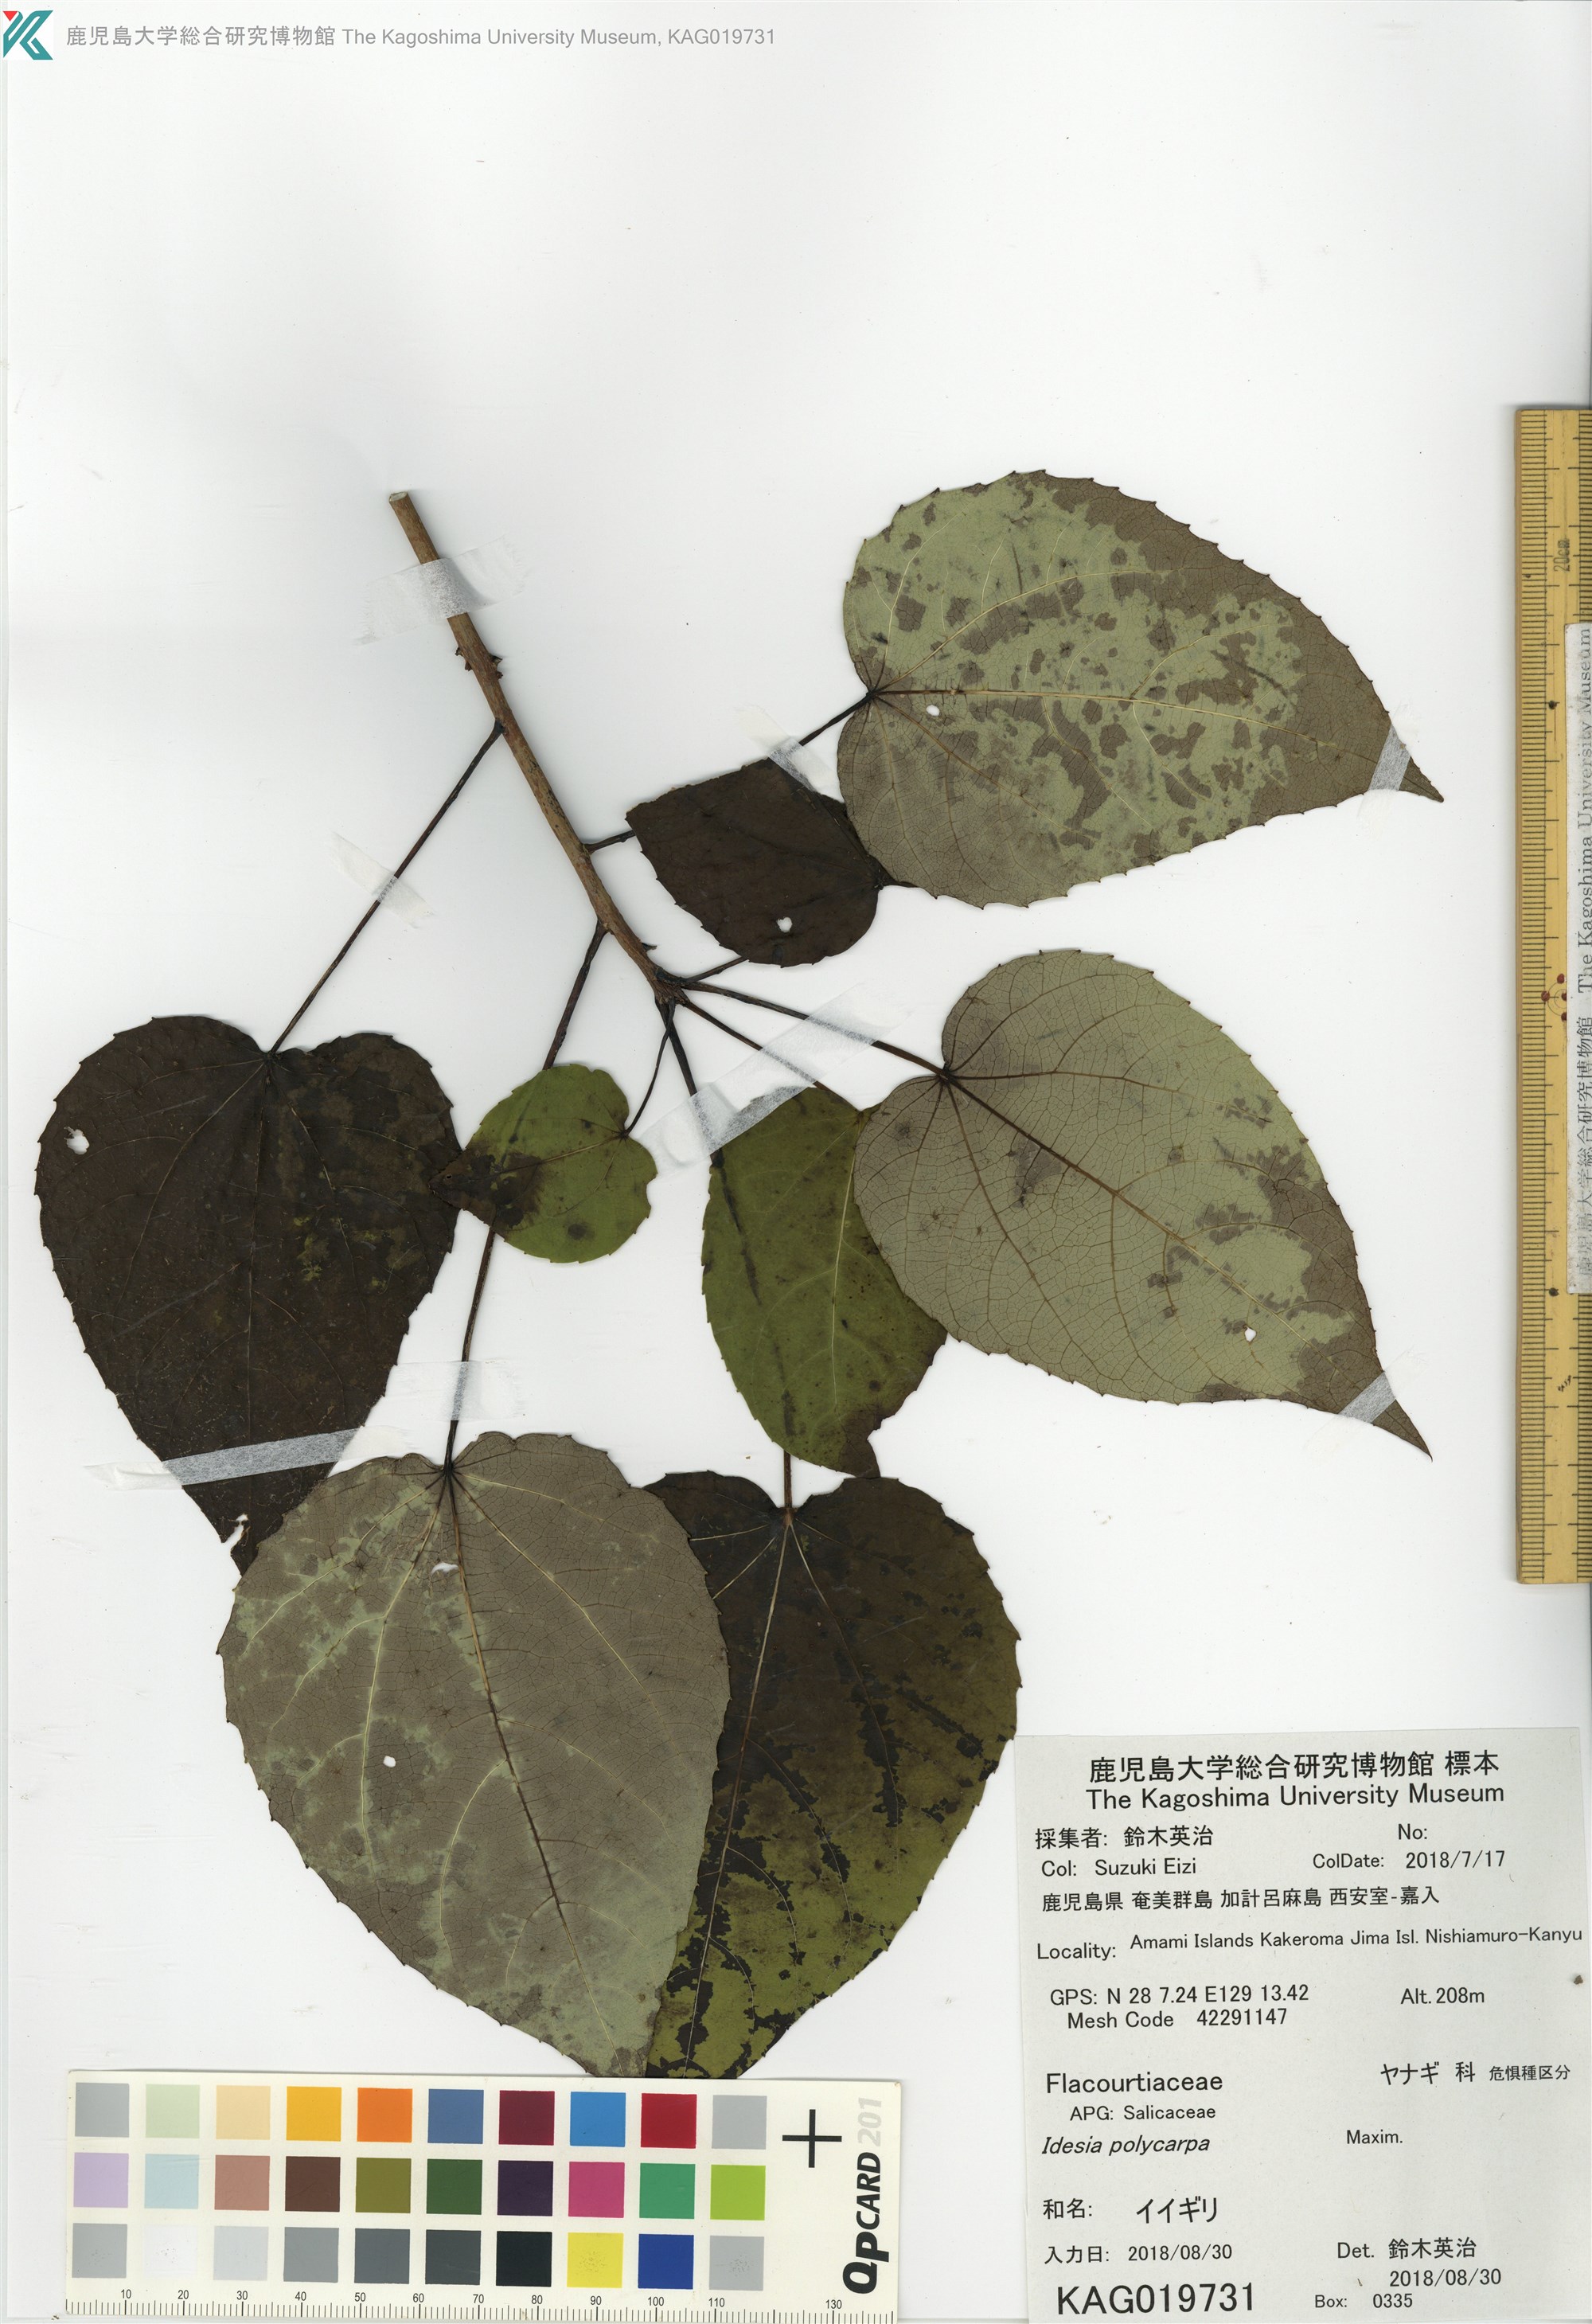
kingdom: Plantae
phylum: Tracheophyta
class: Magnoliopsida
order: Malpighiales
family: Salicaceae
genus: Idesia
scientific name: Idesia polycarpa
